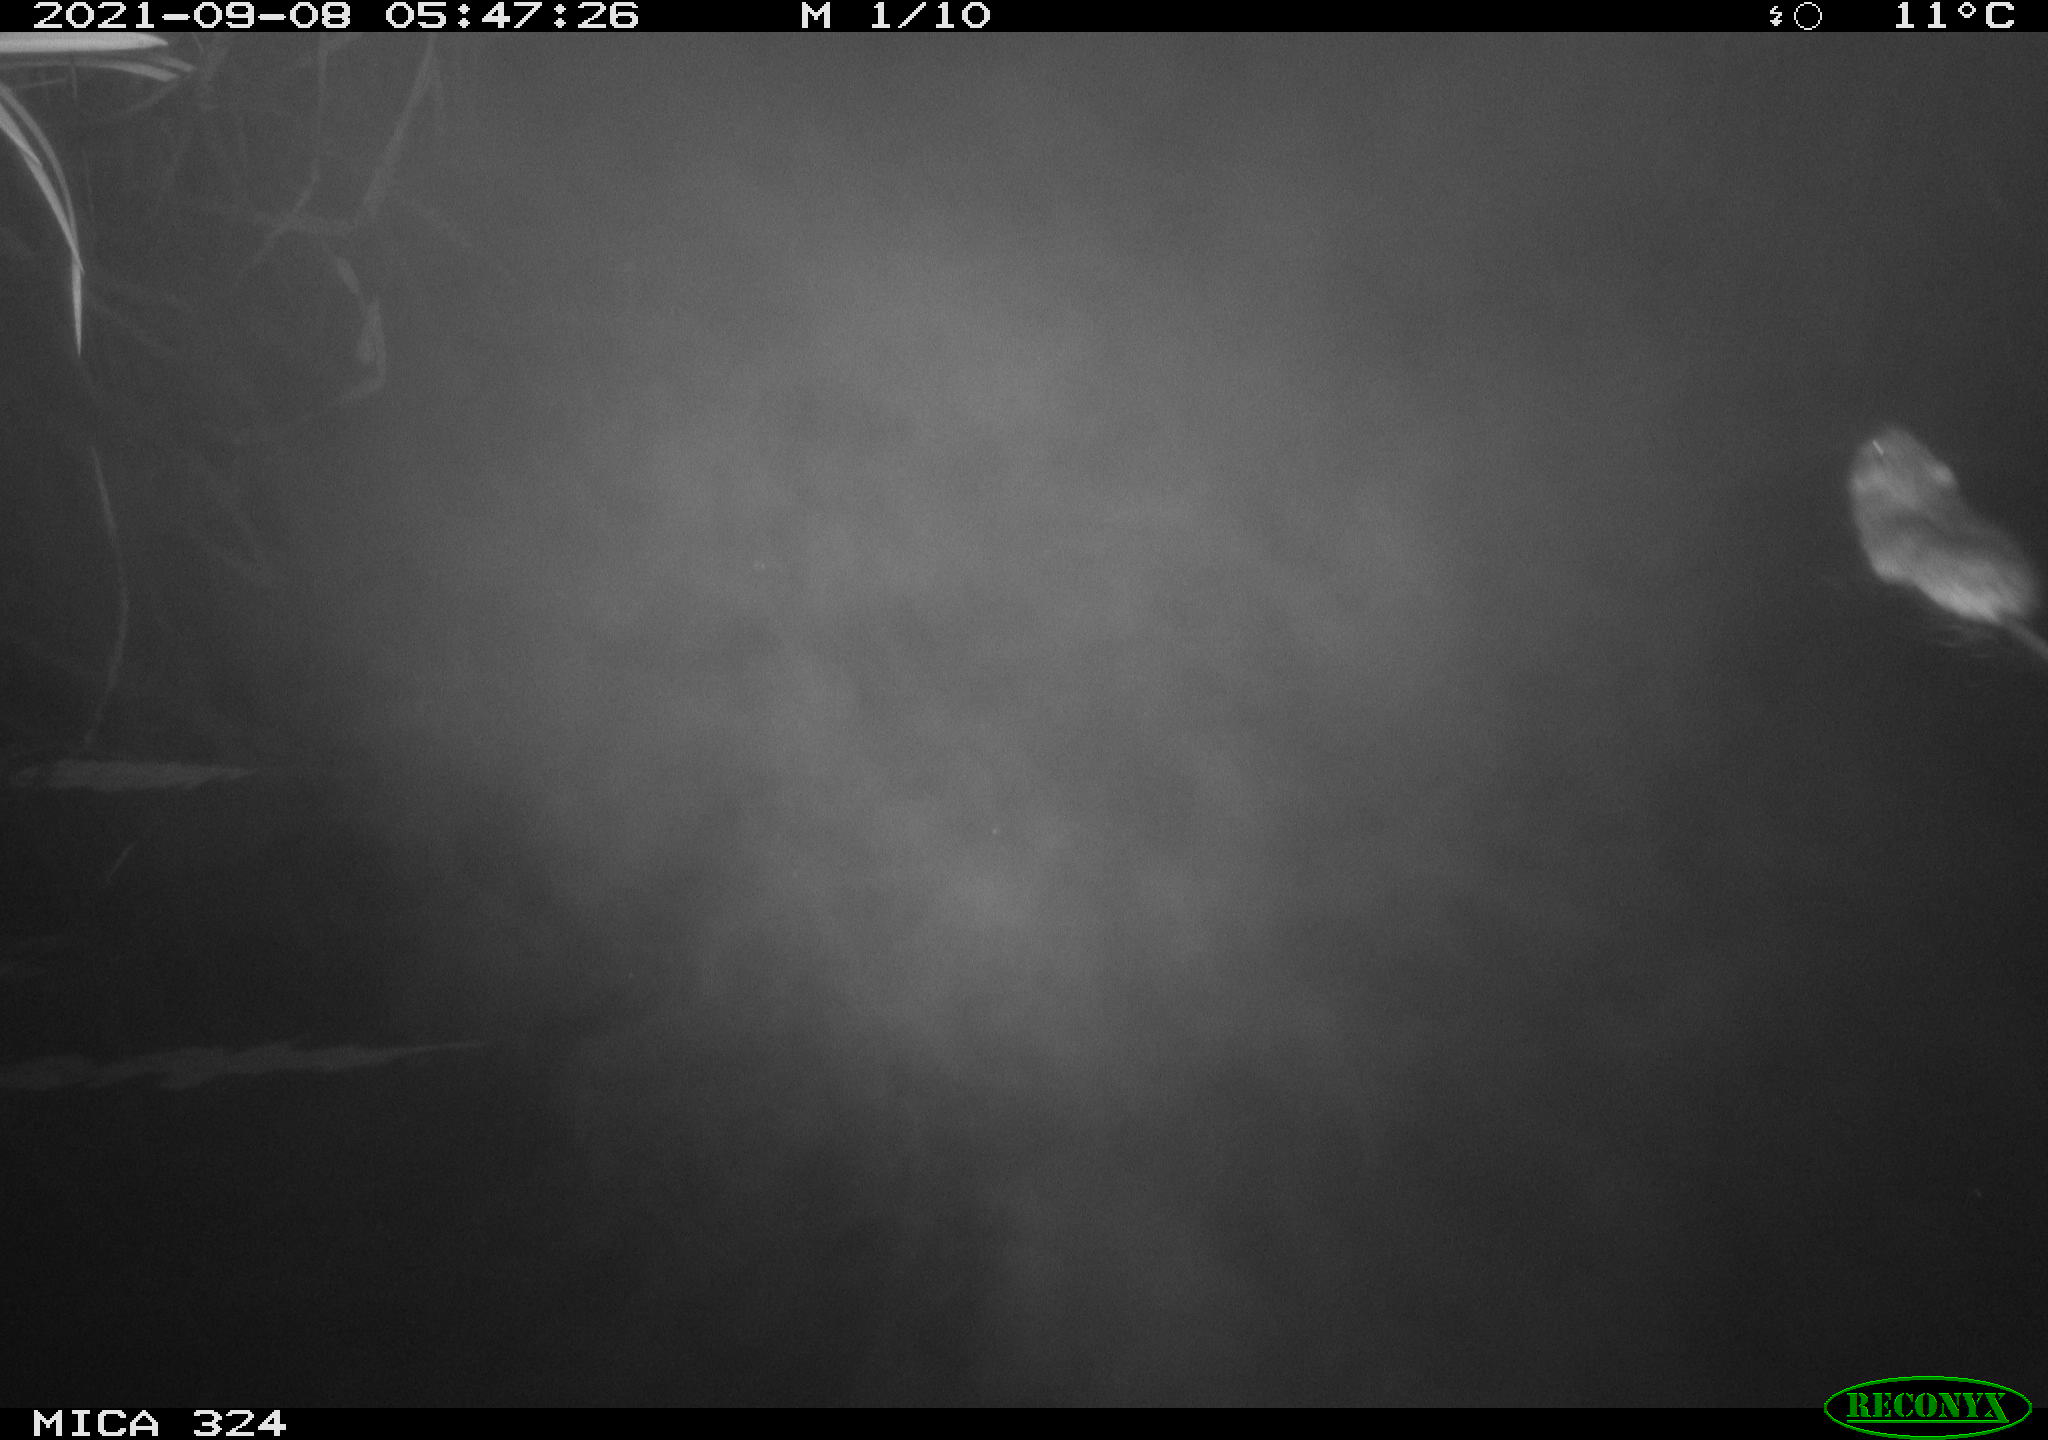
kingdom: Animalia
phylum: Chordata
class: Mammalia
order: Rodentia
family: Cricetidae
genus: Ondatra
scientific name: Ondatra zibethicus
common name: Muskrat
